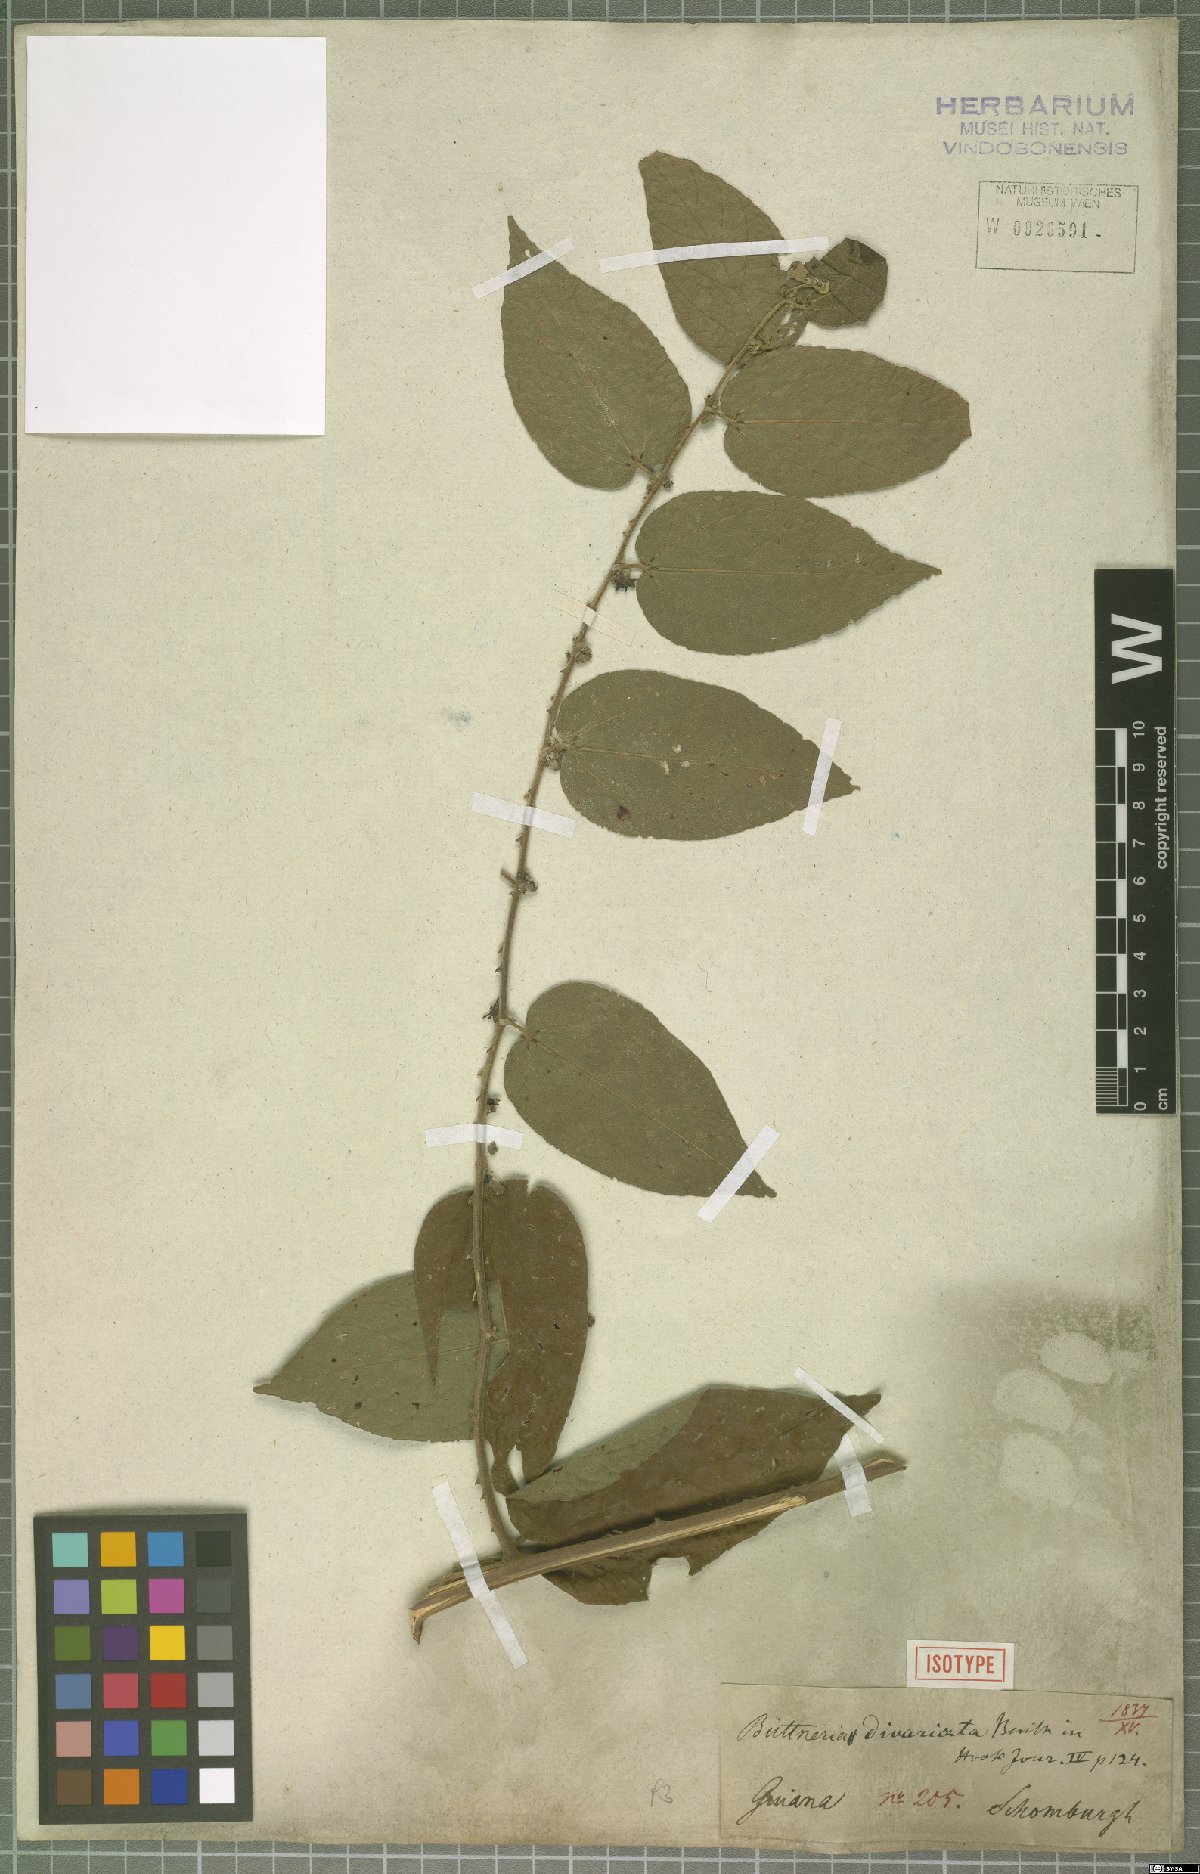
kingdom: Plantae
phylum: Tracheophyta
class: Magnoliopsida
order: Malvales
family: Malvaceae
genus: Byttneria
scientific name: Byttneria divaricata
